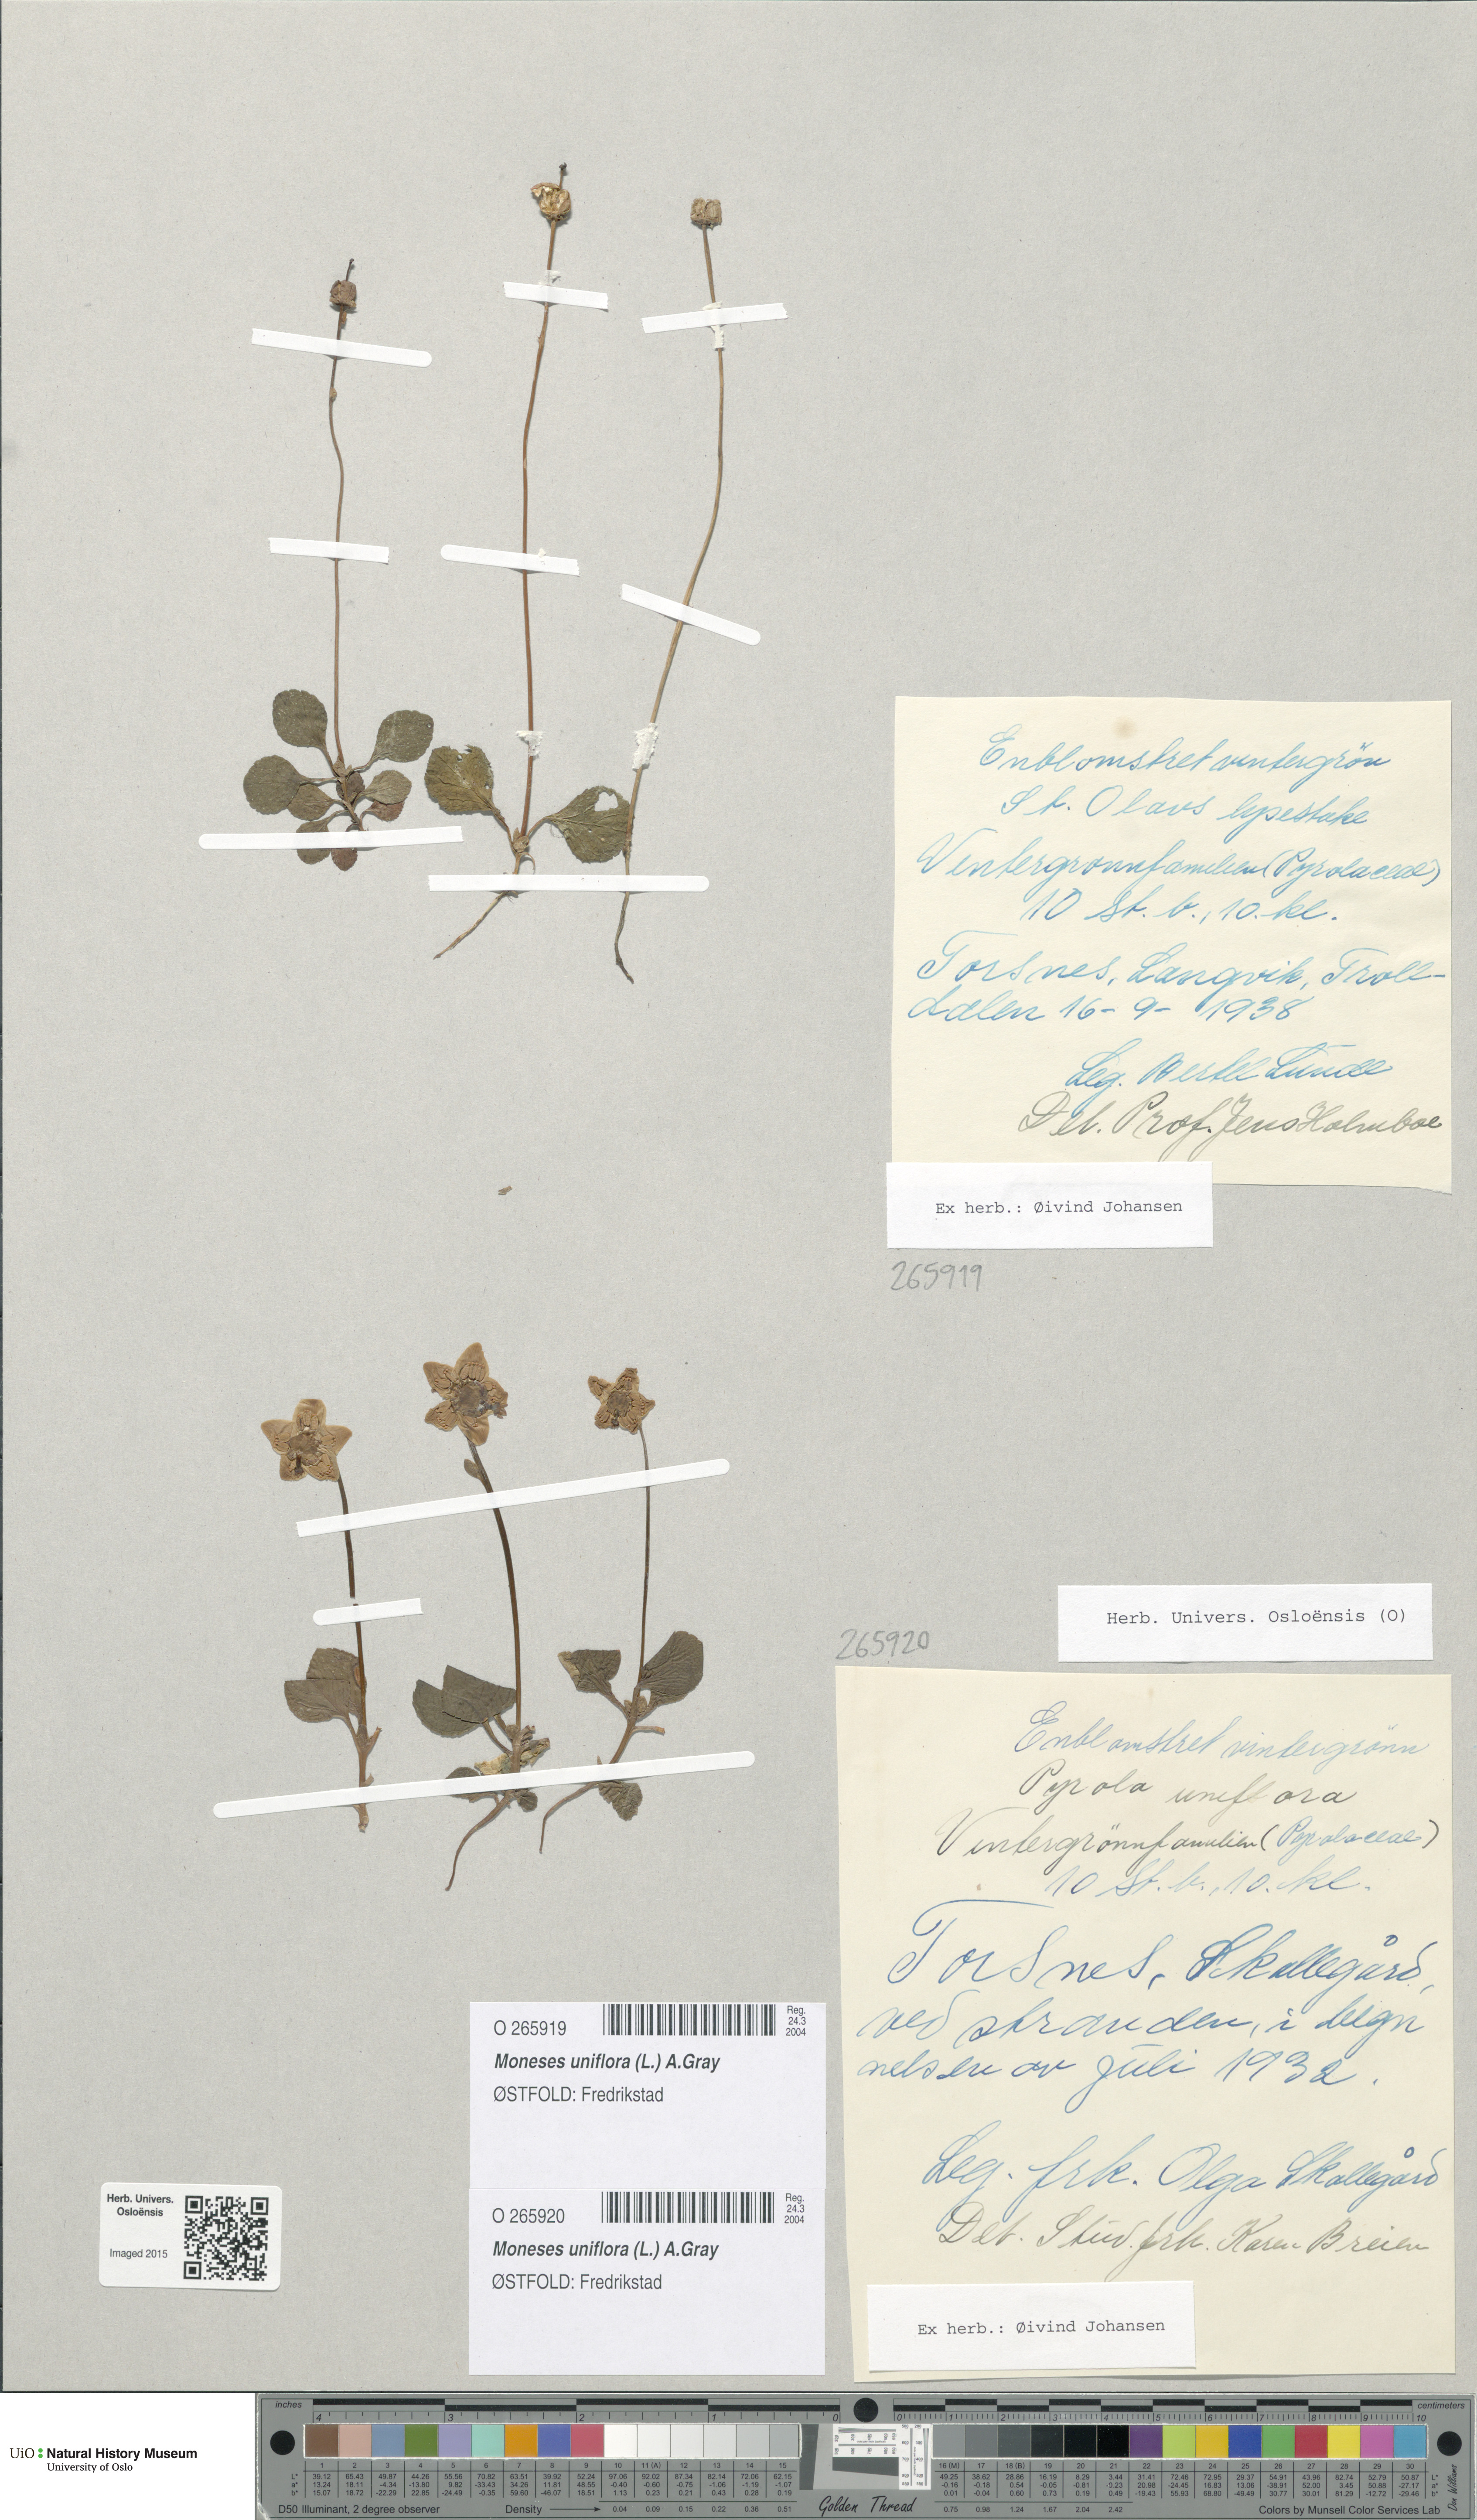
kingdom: Plantae
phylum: Tracheophyta
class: Magnoliopsida
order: Ericales
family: Ericaceae
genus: Moneses
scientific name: Moneses uniflora
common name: One-flowered wintergreen
